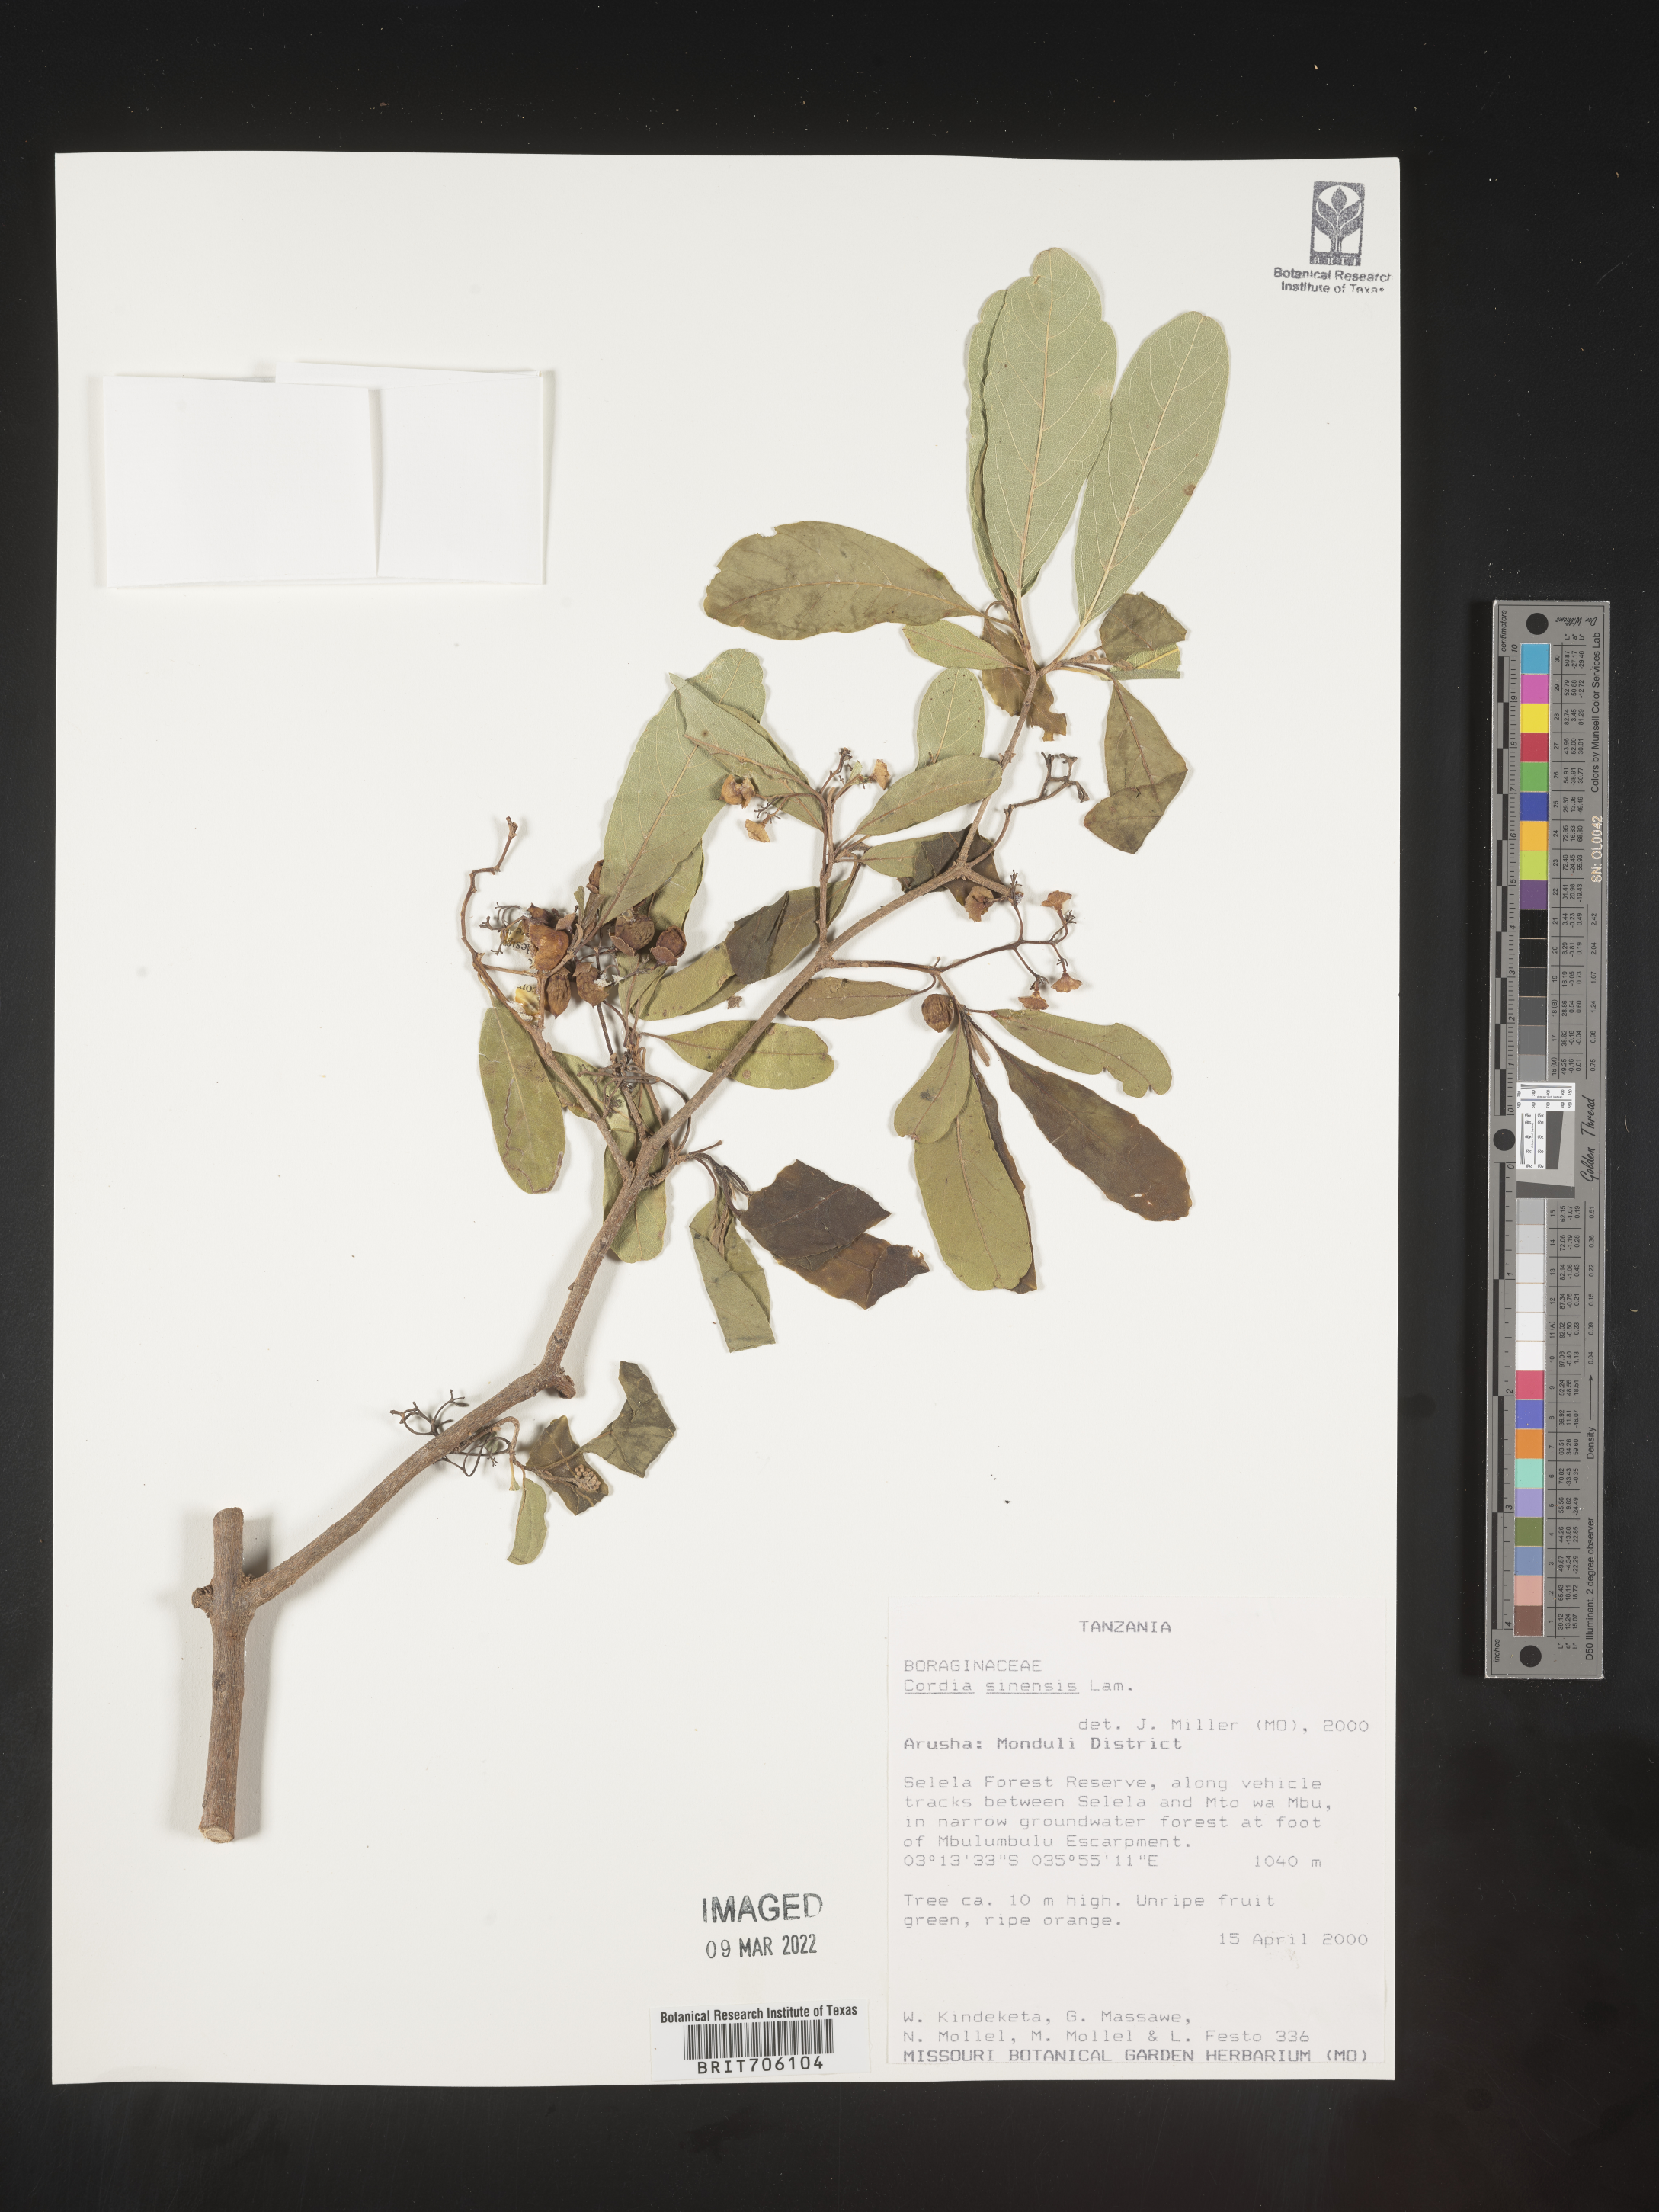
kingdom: Plantae
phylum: Tracheophyta
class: Magnoliopsida
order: Boraginales
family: Cordiaceae
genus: Cordia
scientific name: Cordia
